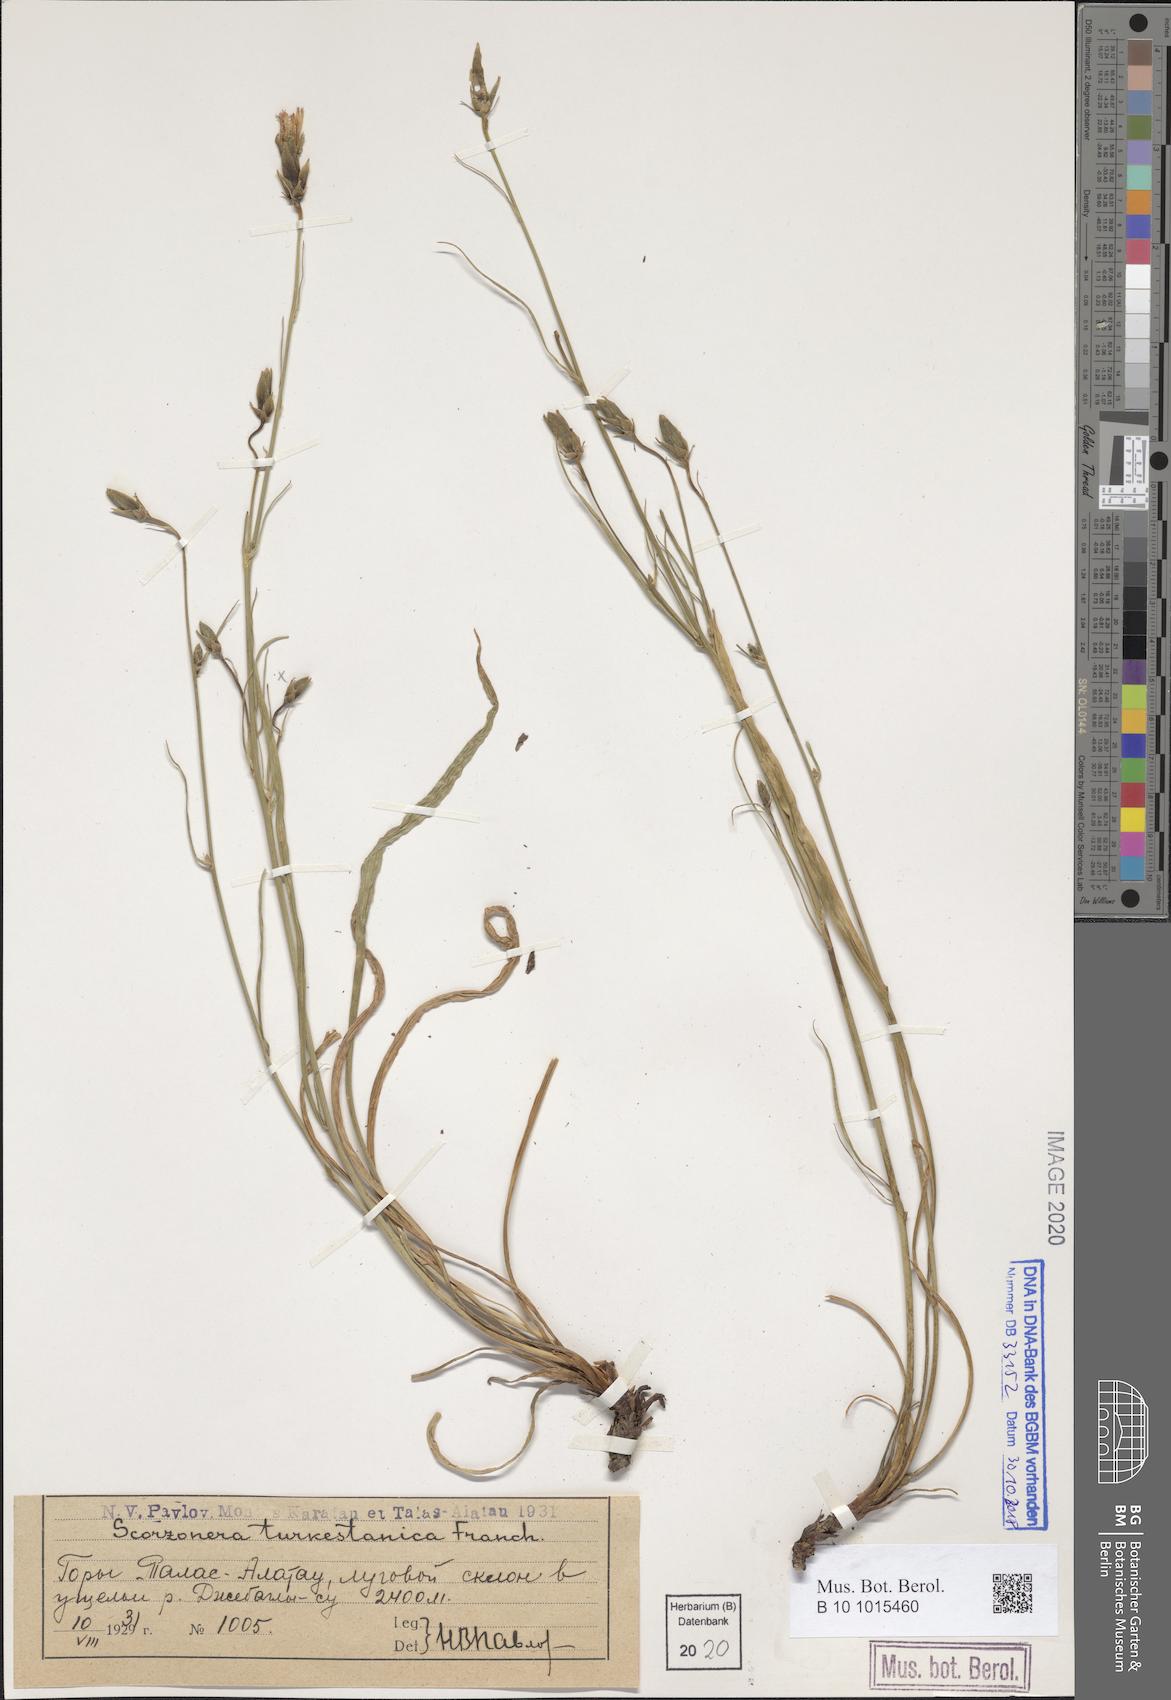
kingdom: Plantae
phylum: Tracheophyta
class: Magnoliopsida
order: Asterales
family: Asteraceae
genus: Candollea
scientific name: Candollea turkestanica
